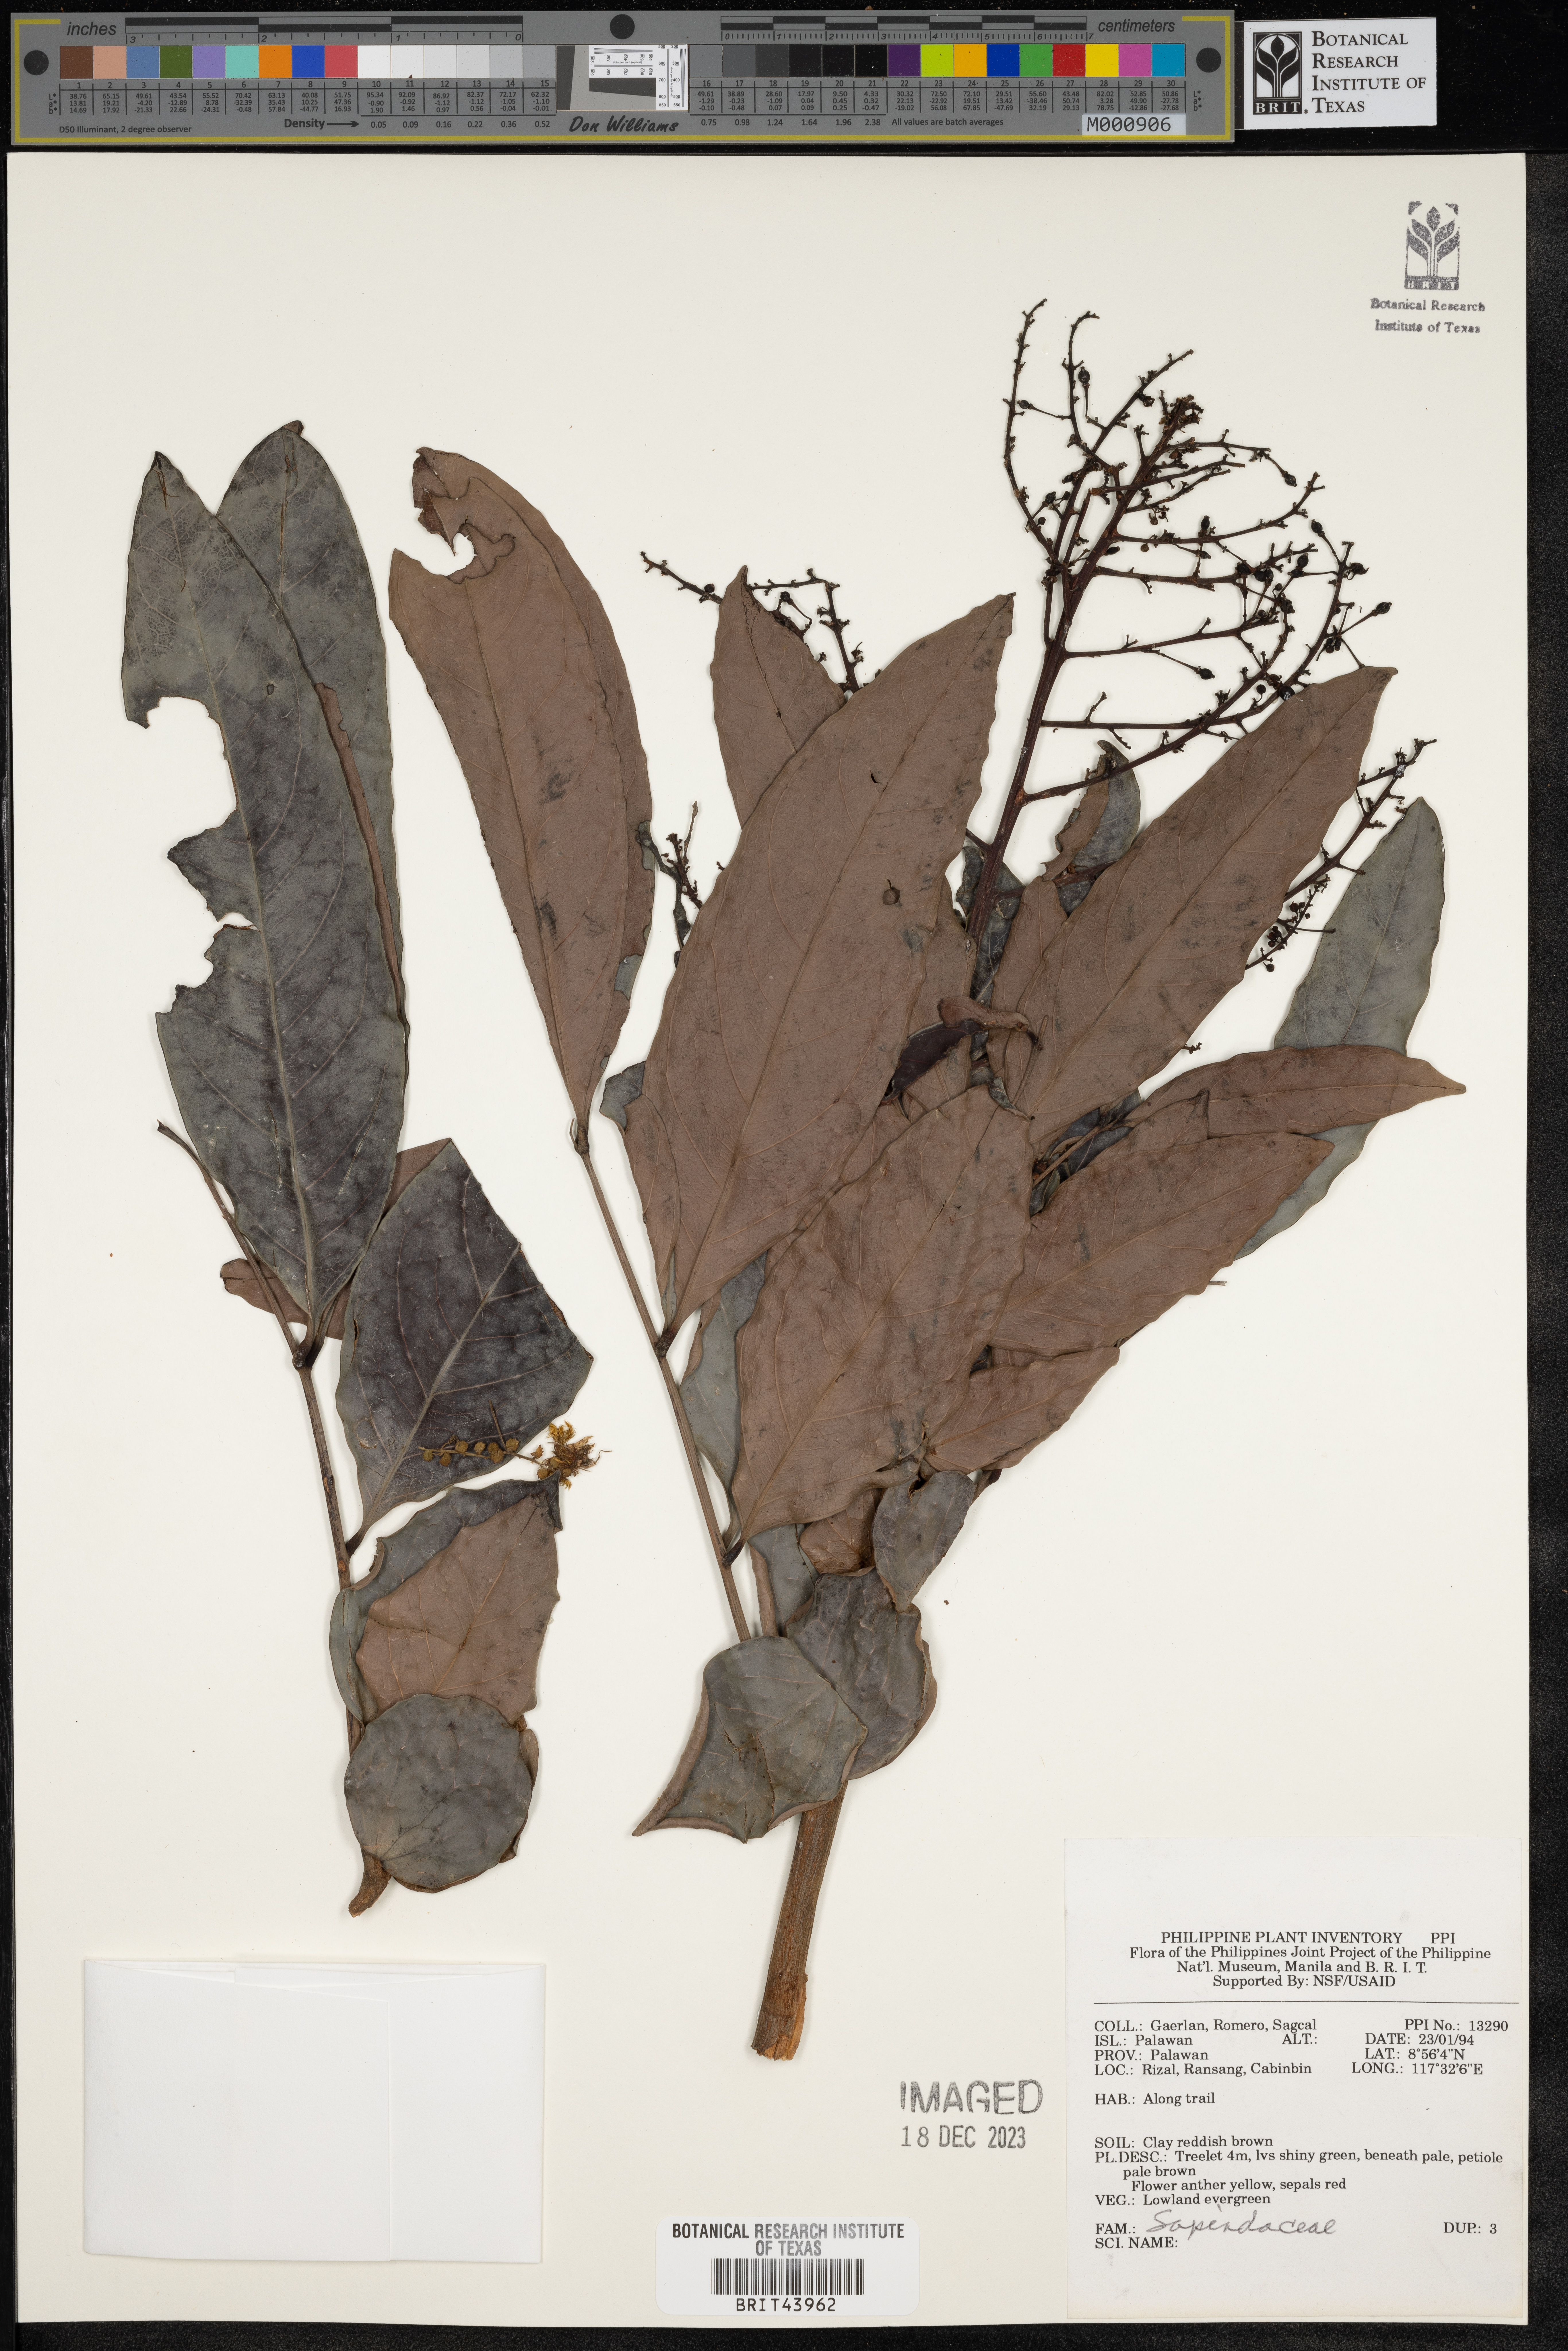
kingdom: Plantae
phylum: Tracheophyta
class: Magnoliopsida
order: Sapindales
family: Sapindaceae
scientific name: Sapindaceae
